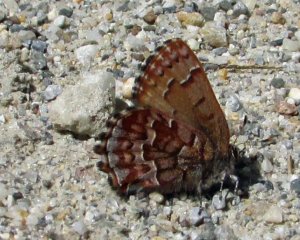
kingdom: Animalia
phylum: Arthropoda
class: Insecta
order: Lepidoptera
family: Lycaenidae
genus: Incisalia
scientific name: Incisalia niphon
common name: Eastern Pine Elfin
